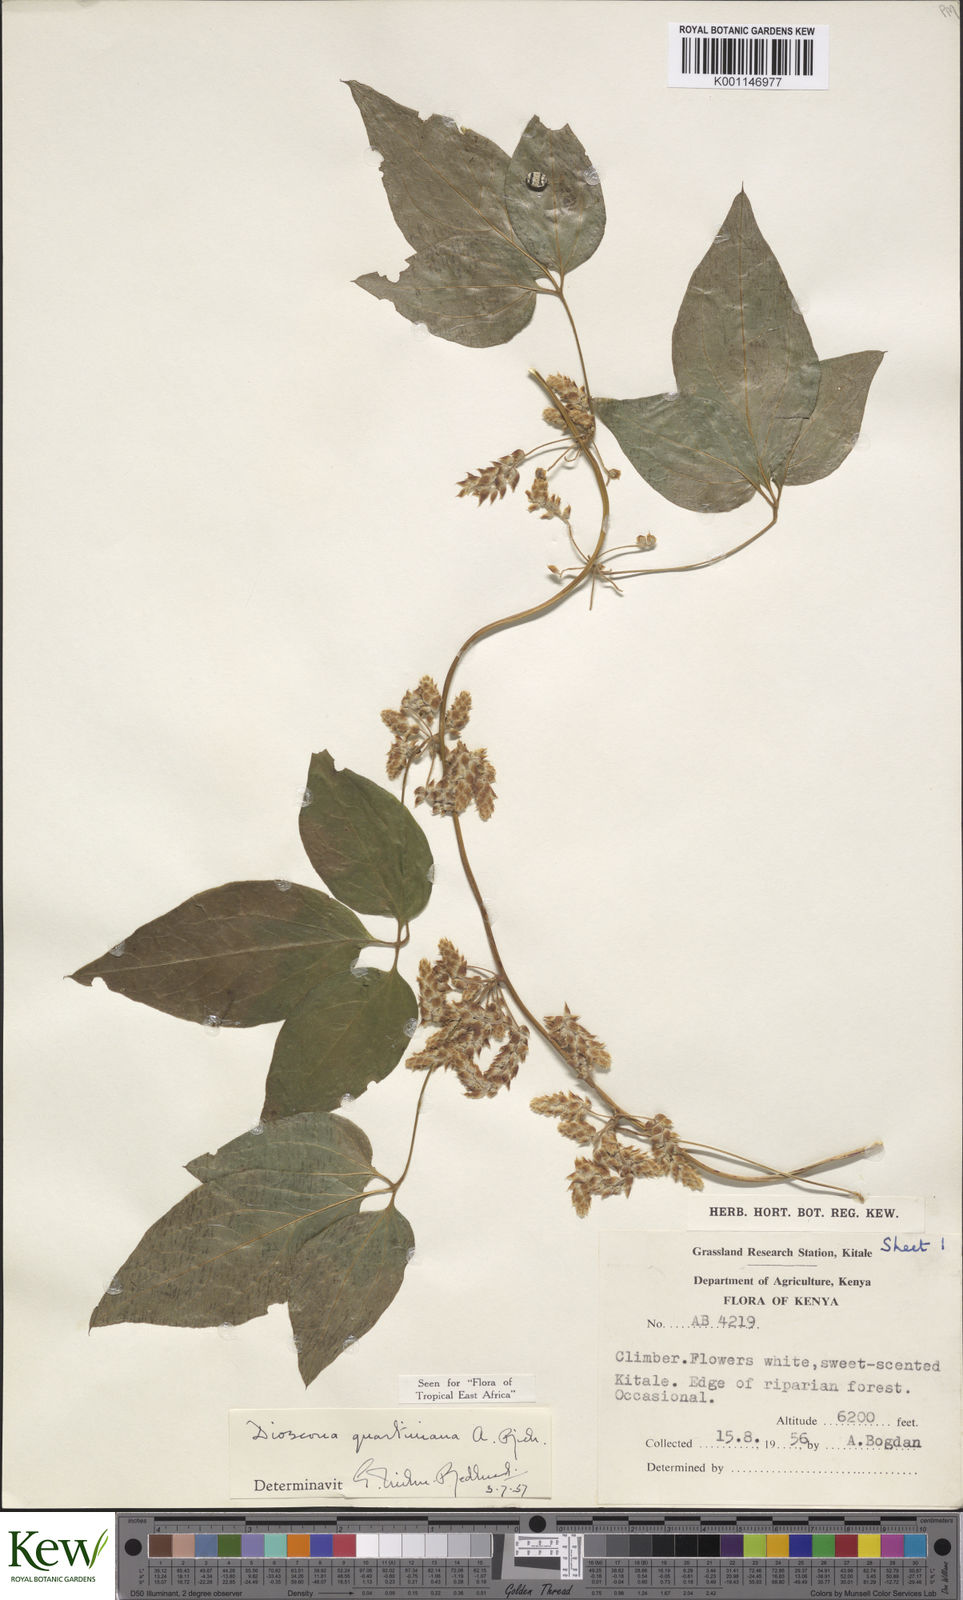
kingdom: Plantae
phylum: Tracheophyta
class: Liliopsida
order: Dioscoreales
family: Dioscoreaceae
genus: Dioscorea
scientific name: Dioscorea quartiniana
